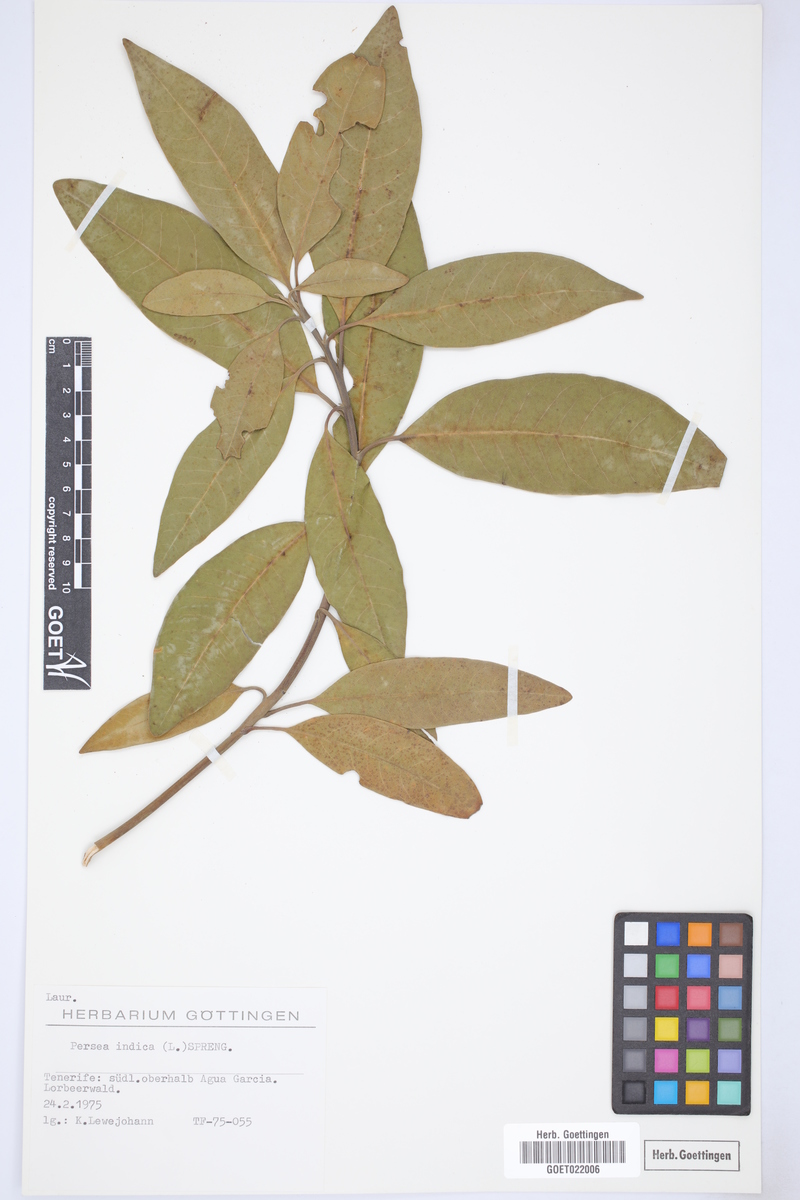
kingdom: Plantae
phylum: Tracheophyta
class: Magnoliopsida
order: Laurales
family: Lauraceae
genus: Persea
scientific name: Persea indica
